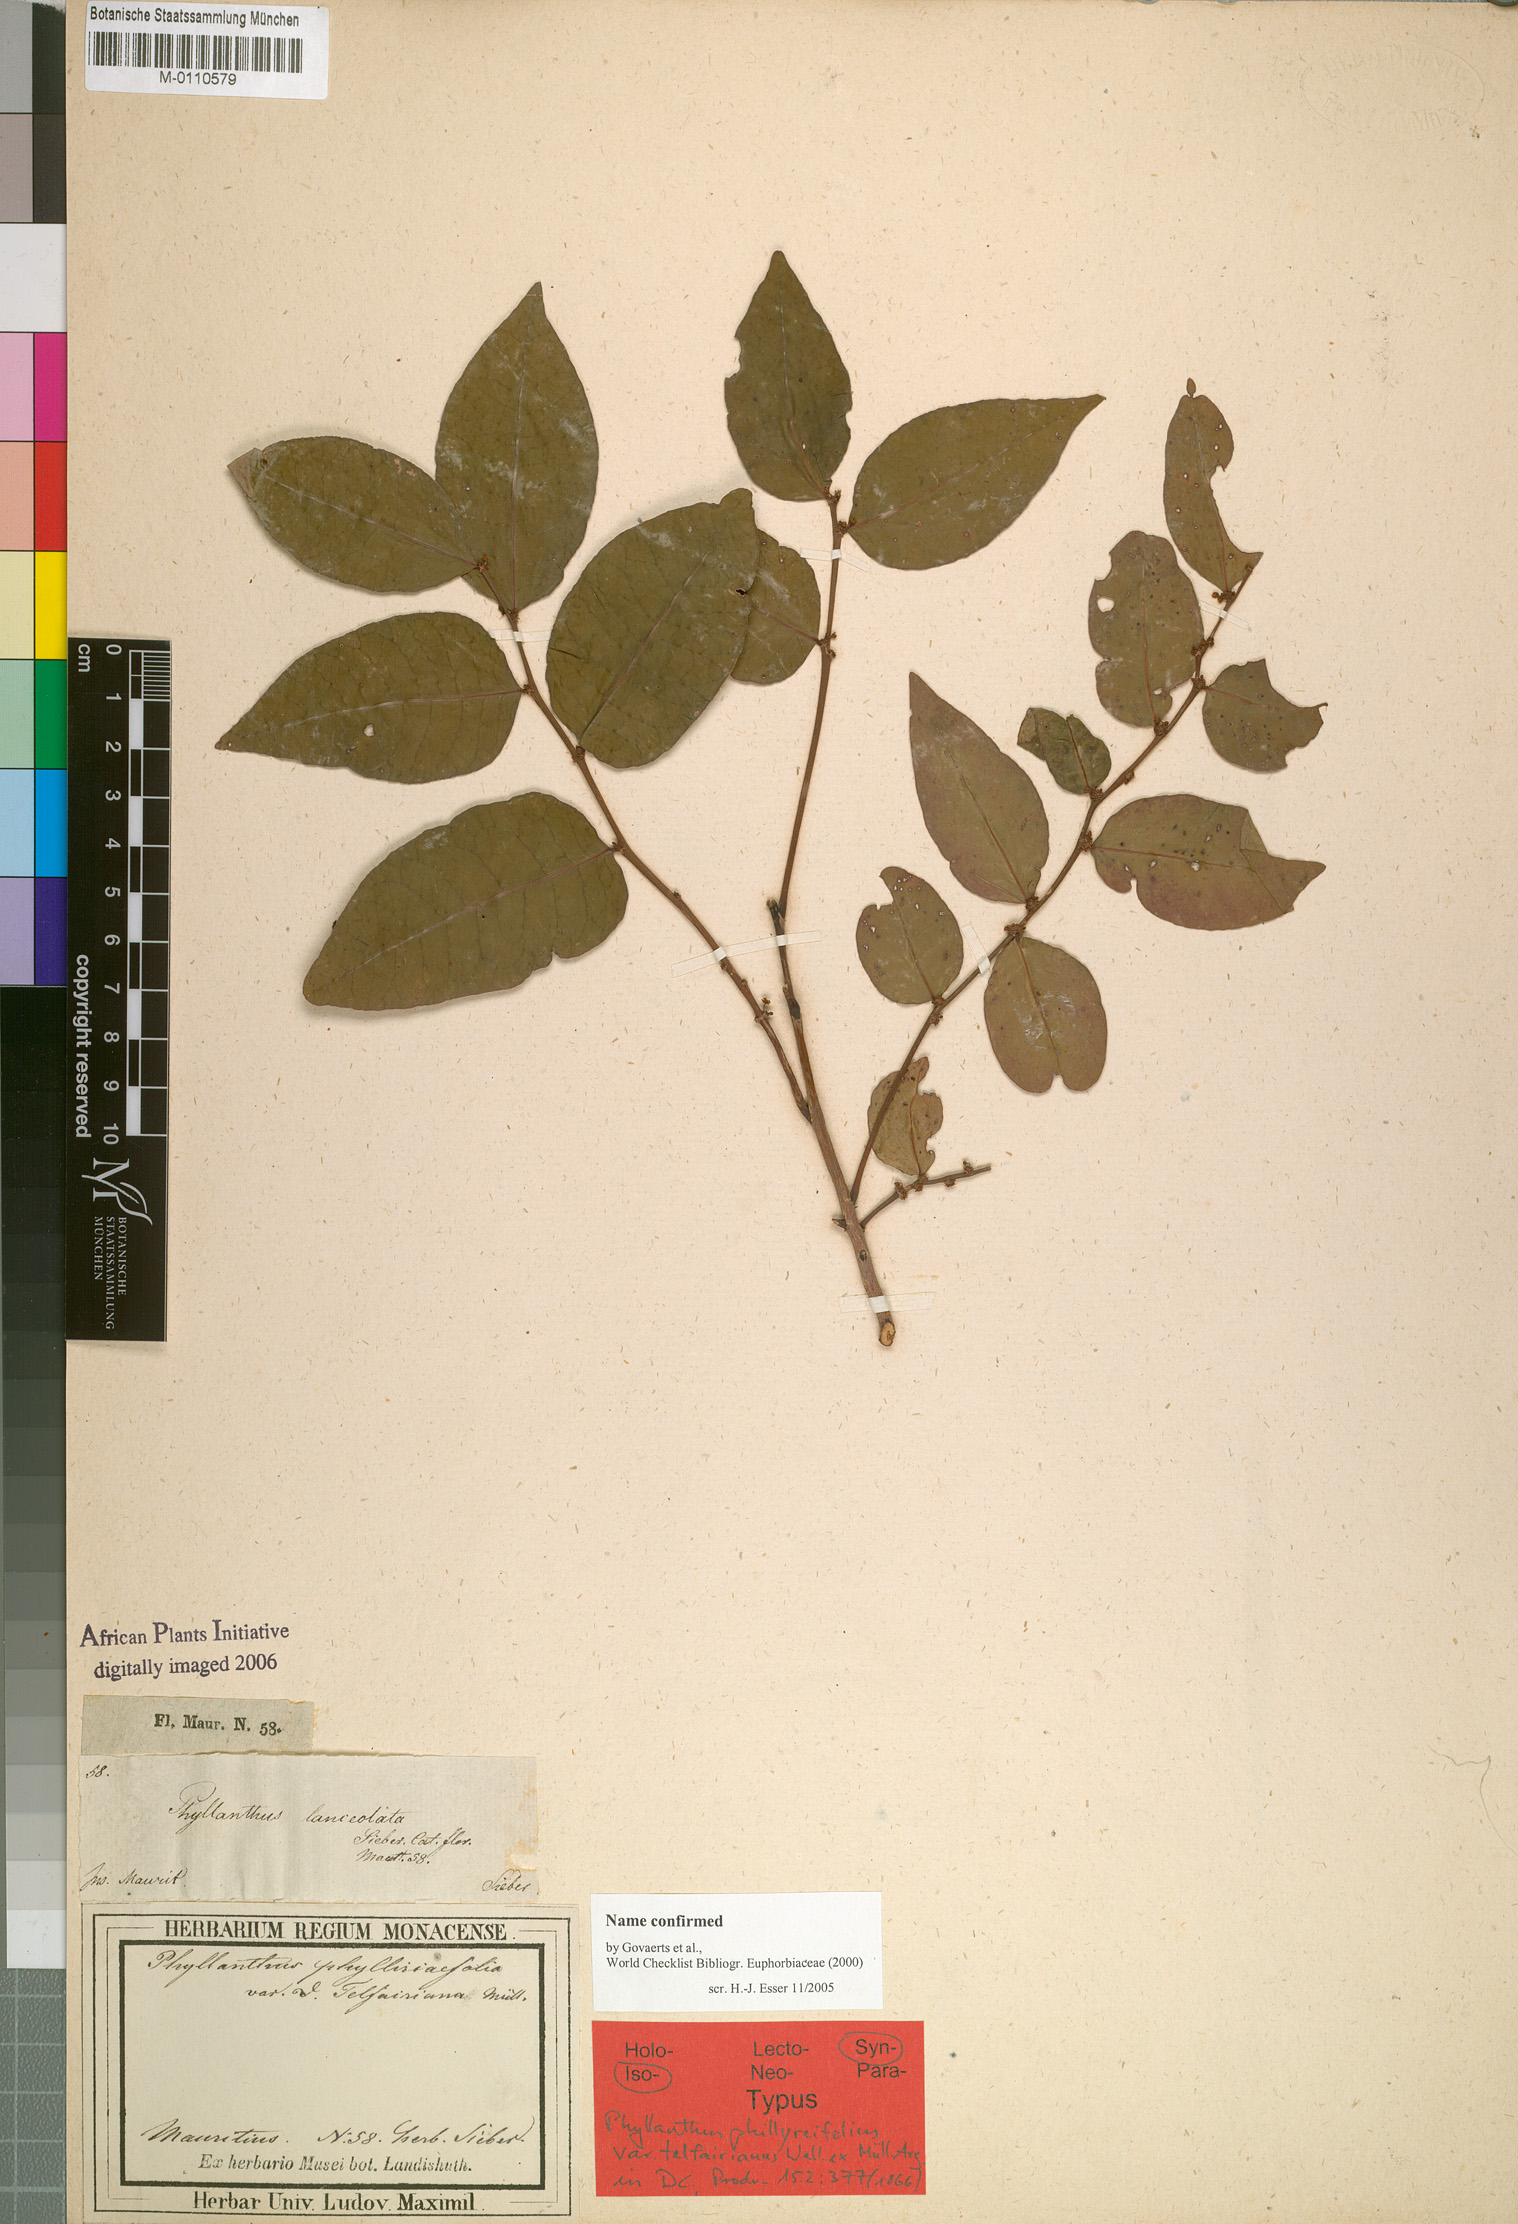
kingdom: Plantae
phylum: Tracheophyta
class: Magnoliopsida
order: Malpighiales
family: Phyllanthaceae
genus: Phyllanthus
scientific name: Phyllanthus phillyreifolius
